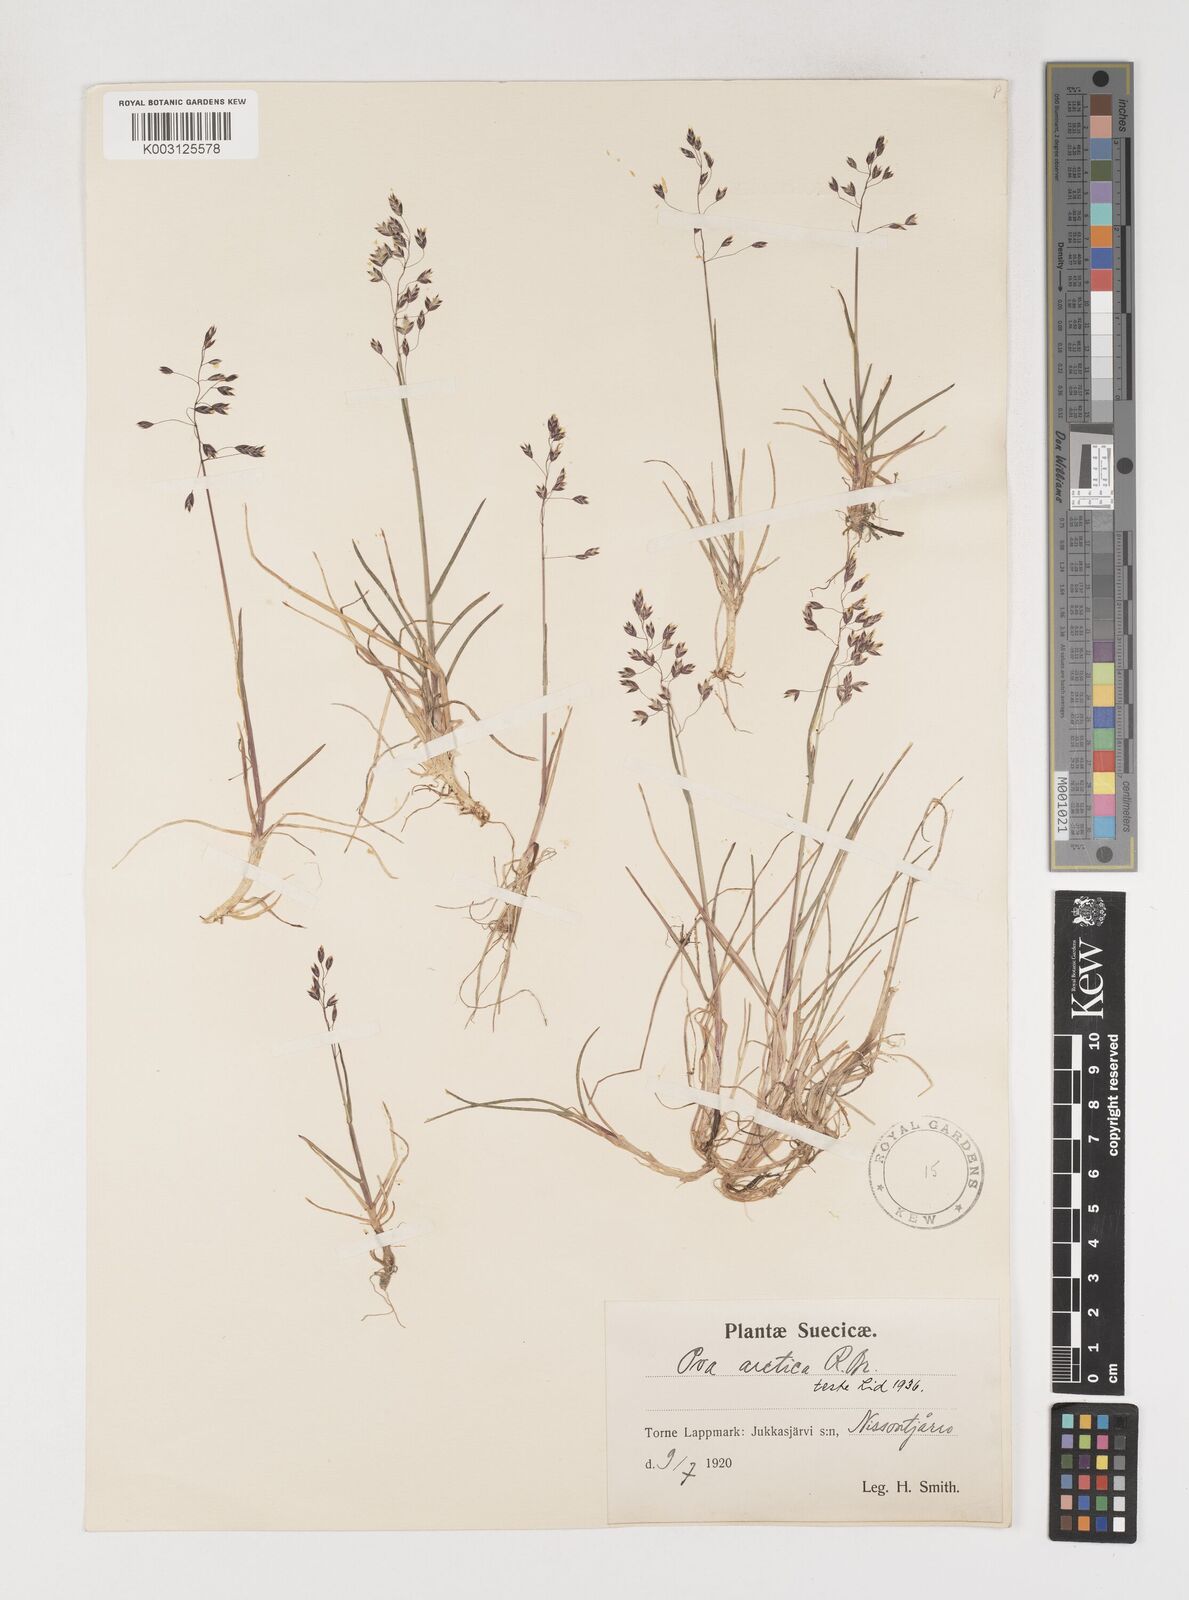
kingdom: Plantae
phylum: Tracheophyta
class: Liliopsida
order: Poales
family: Poaceae
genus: Poa
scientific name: Poa arctica
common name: Arctic bluegrass
